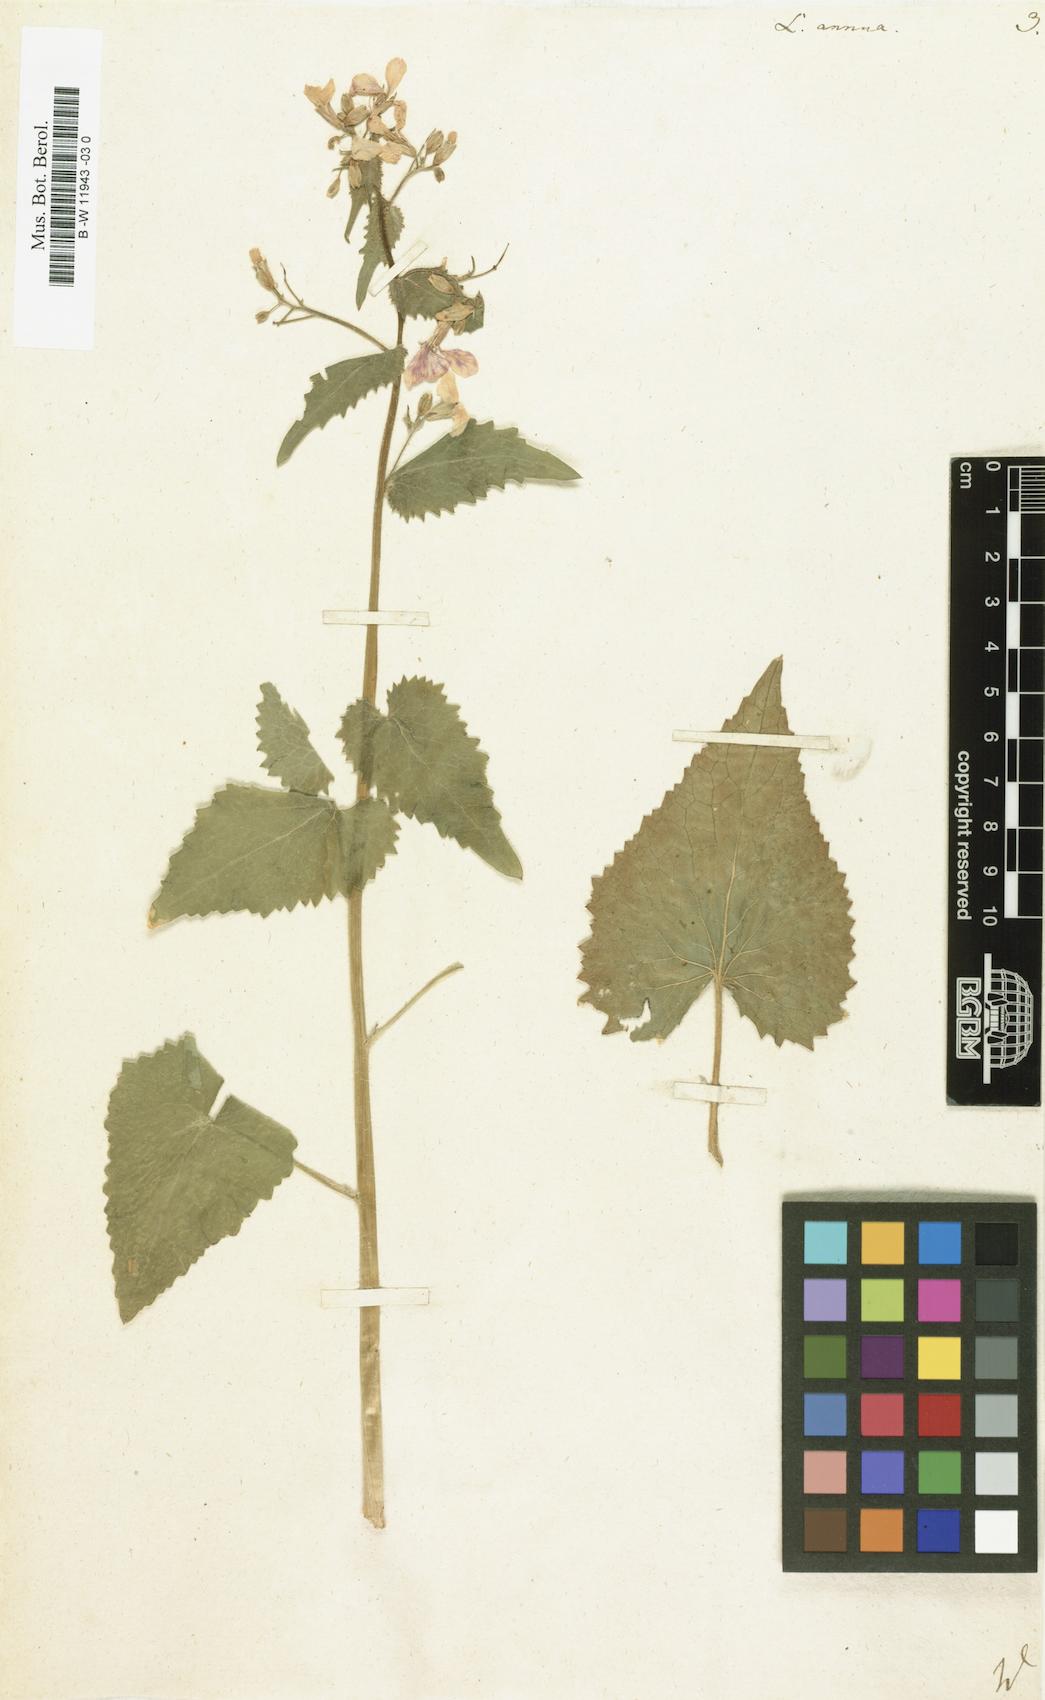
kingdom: Plantae
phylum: Tracheophyta
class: Magnoliopsida
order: Brassicales
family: Brassicaceae
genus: Lunaria
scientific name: Lunaria annua
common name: Honesty
